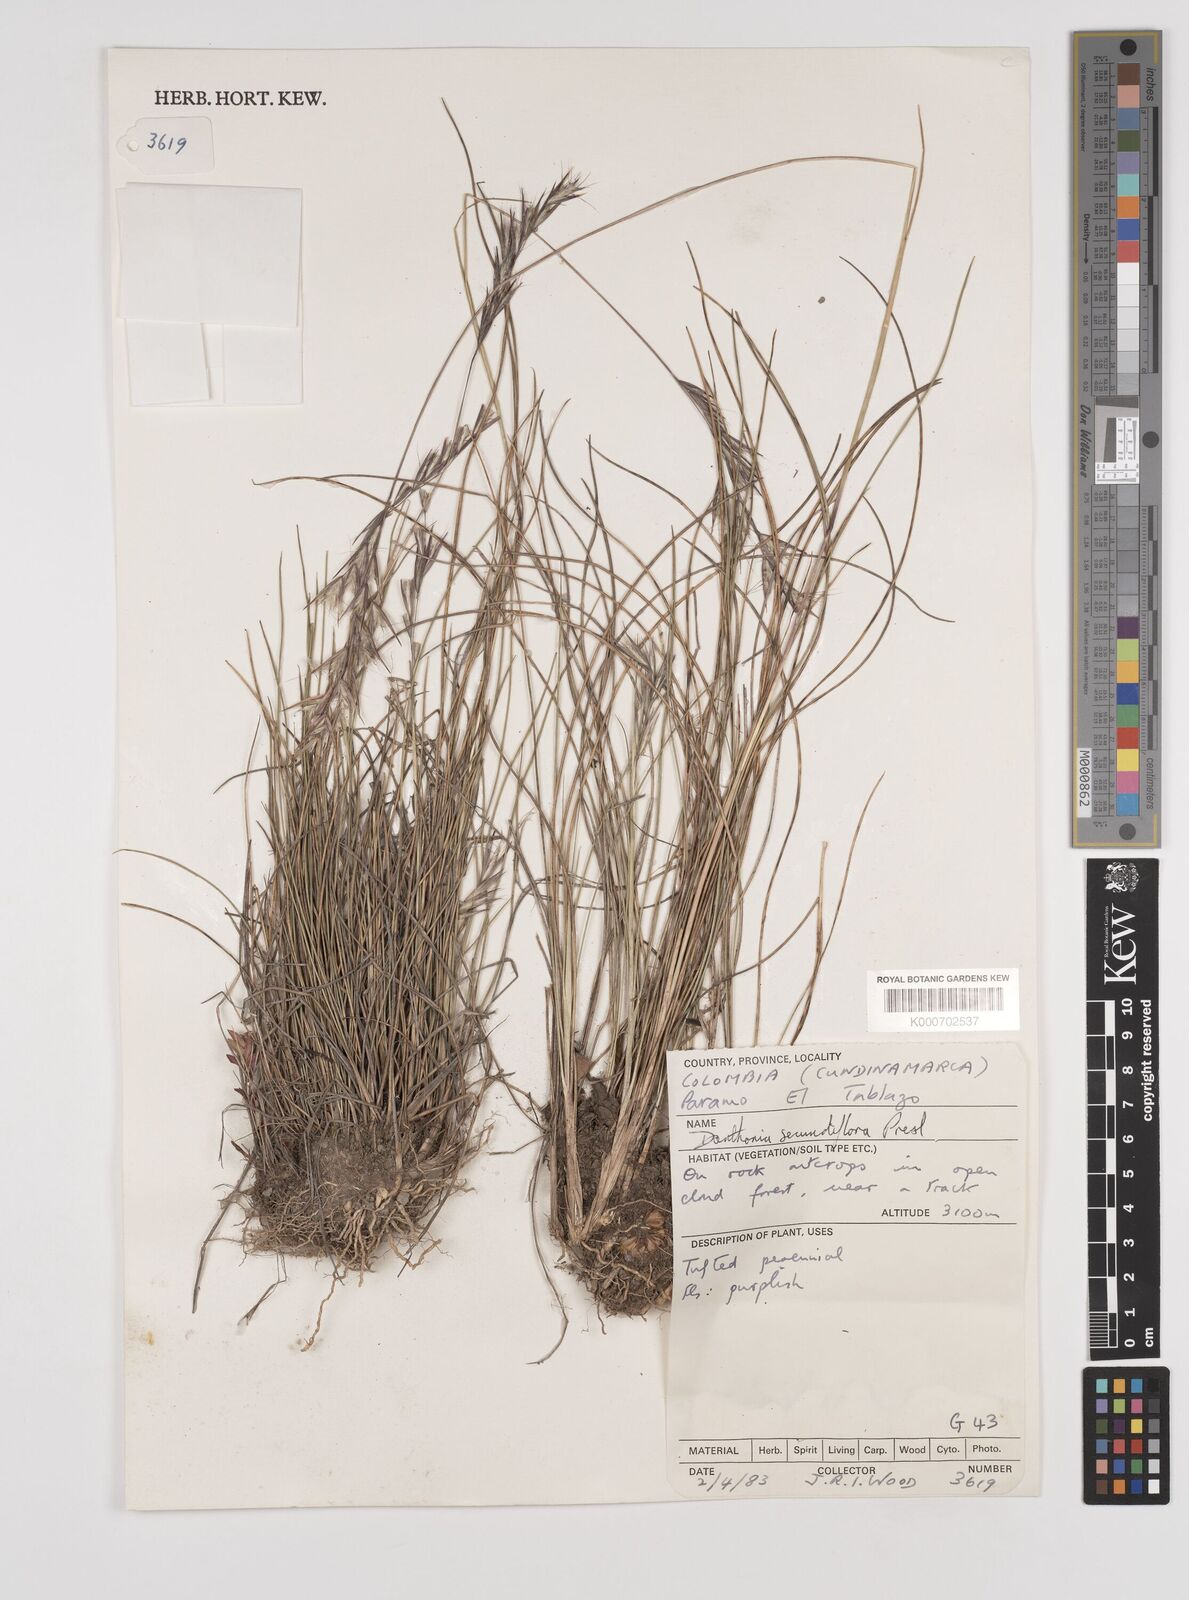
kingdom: Plantae
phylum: Tracheophyta
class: Liliopsida
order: Poales
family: Poaceae
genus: Danthonia
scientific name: Danthonia secundiflora
